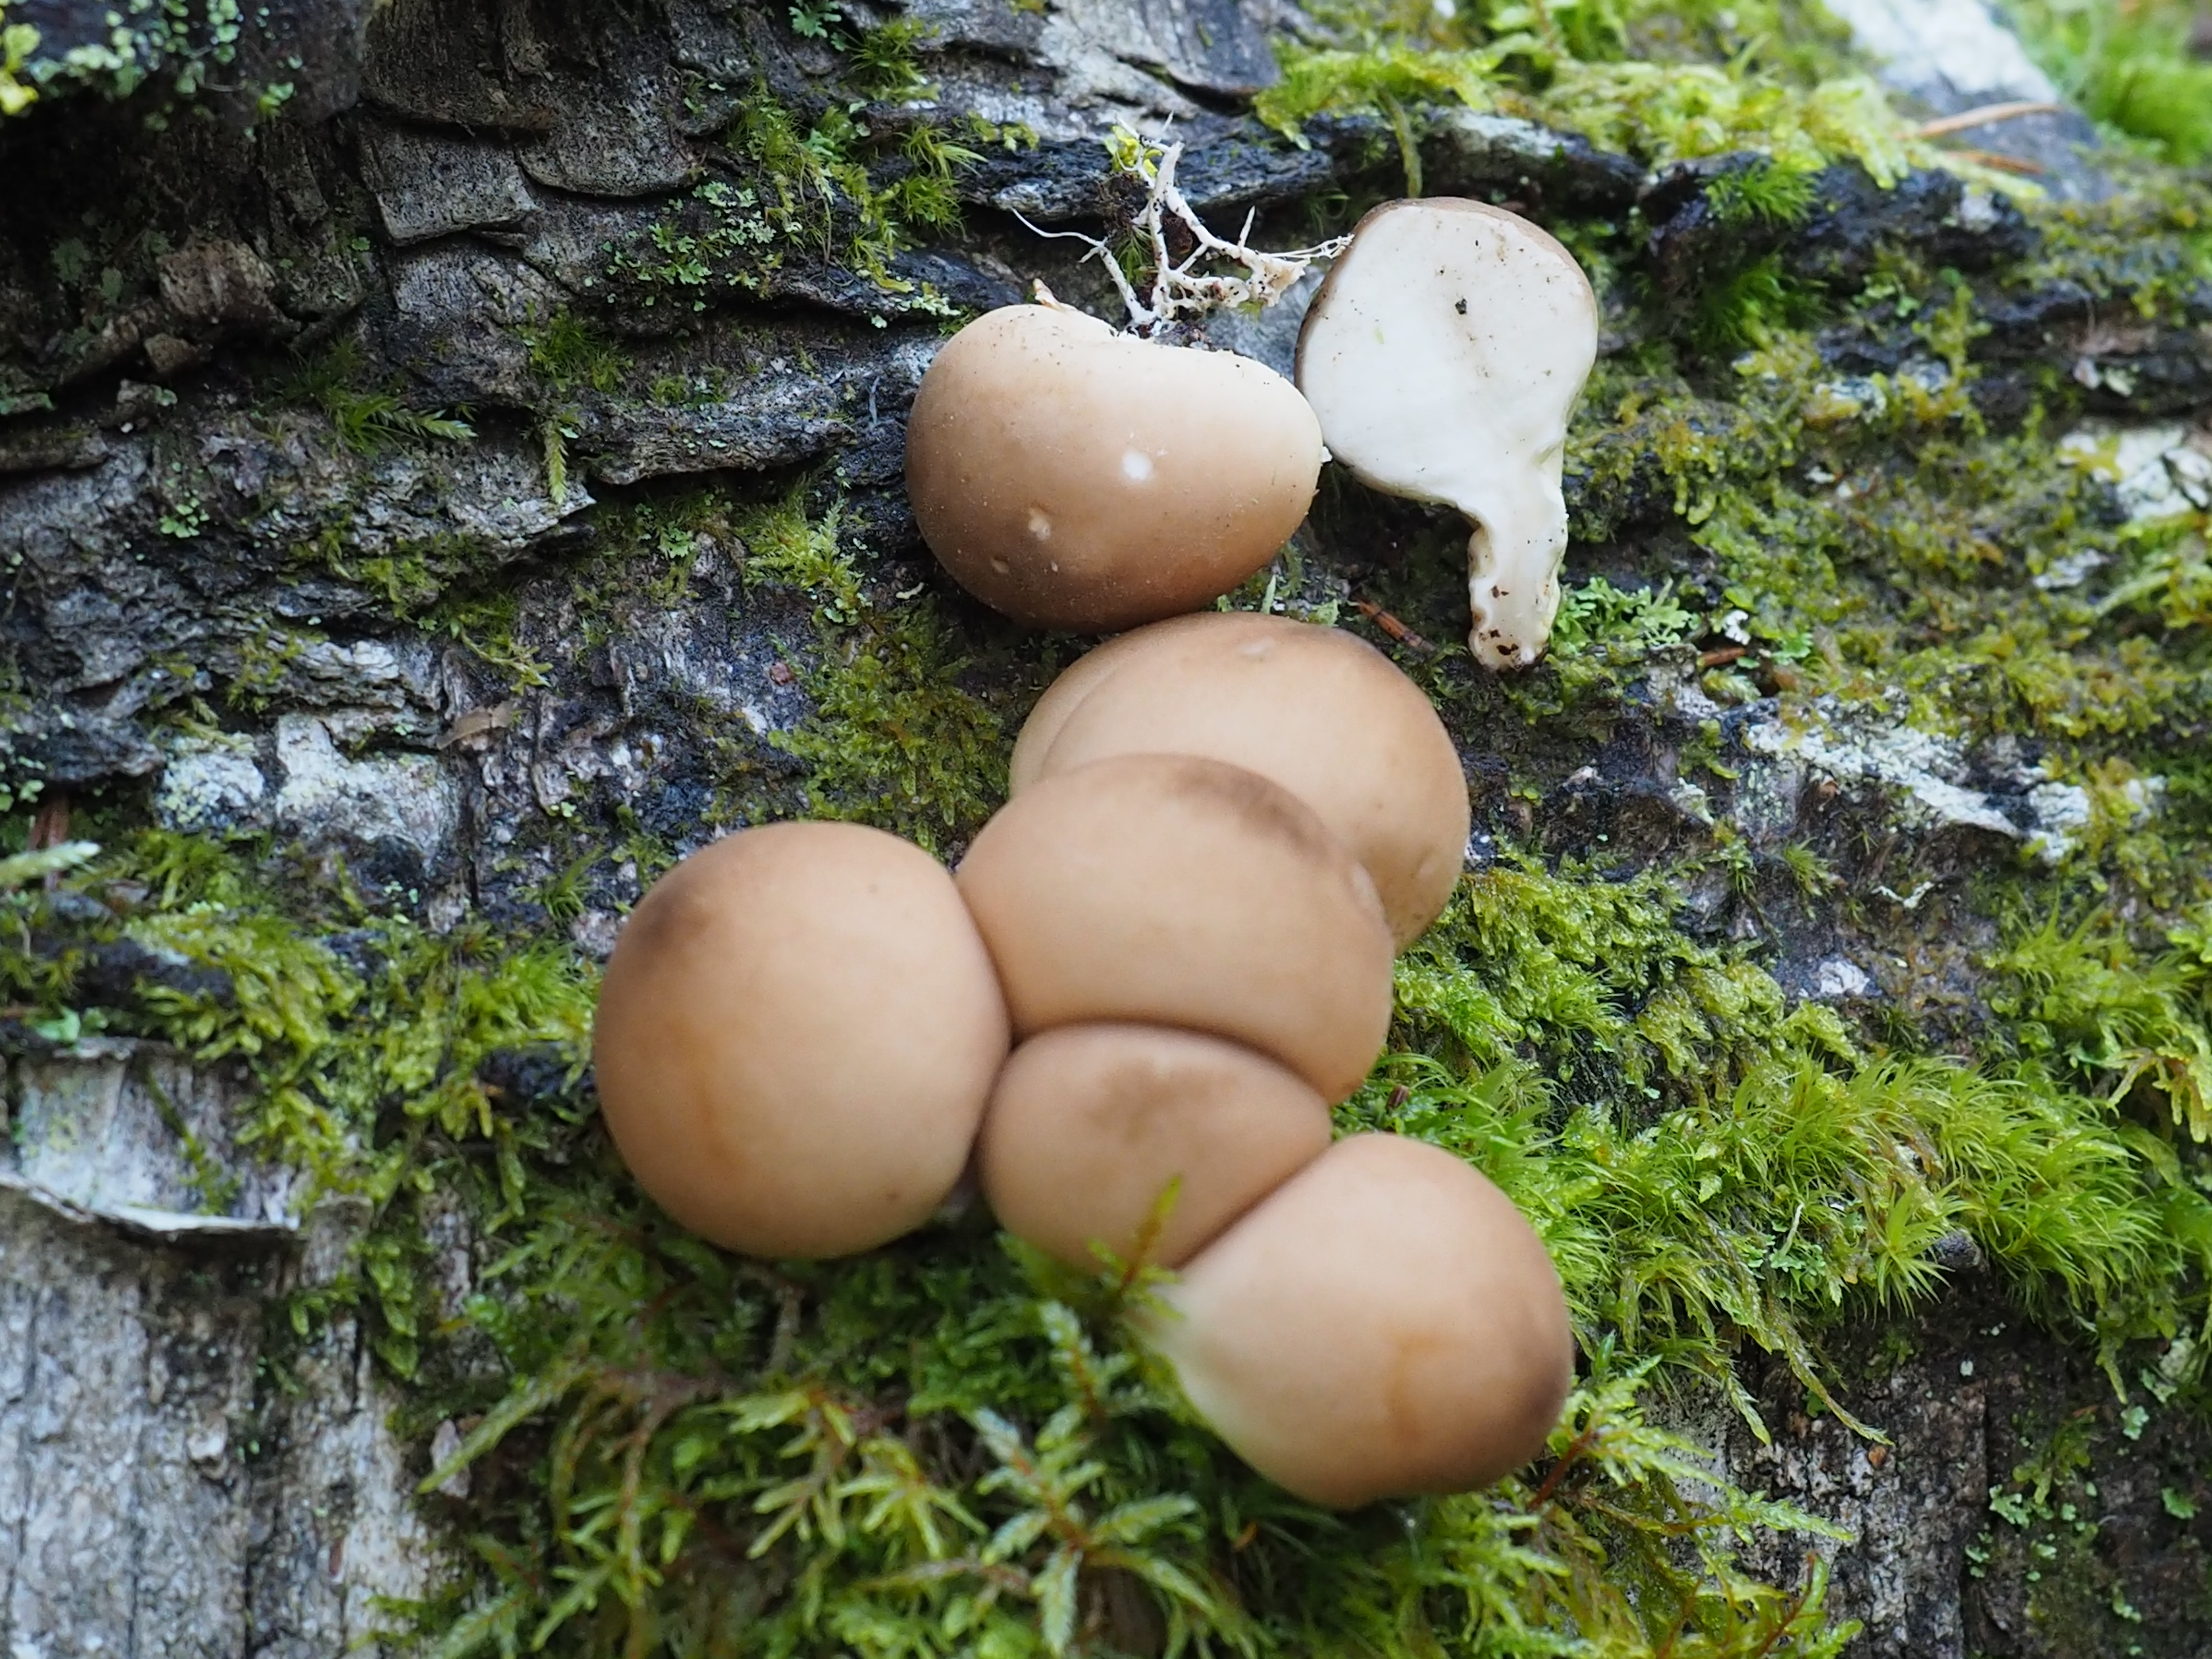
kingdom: Fungi
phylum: Basidiomycota
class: Agaricomycetes
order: Agaricales
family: Agaricaceae
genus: Lycoperdon
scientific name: Lycoperdon
